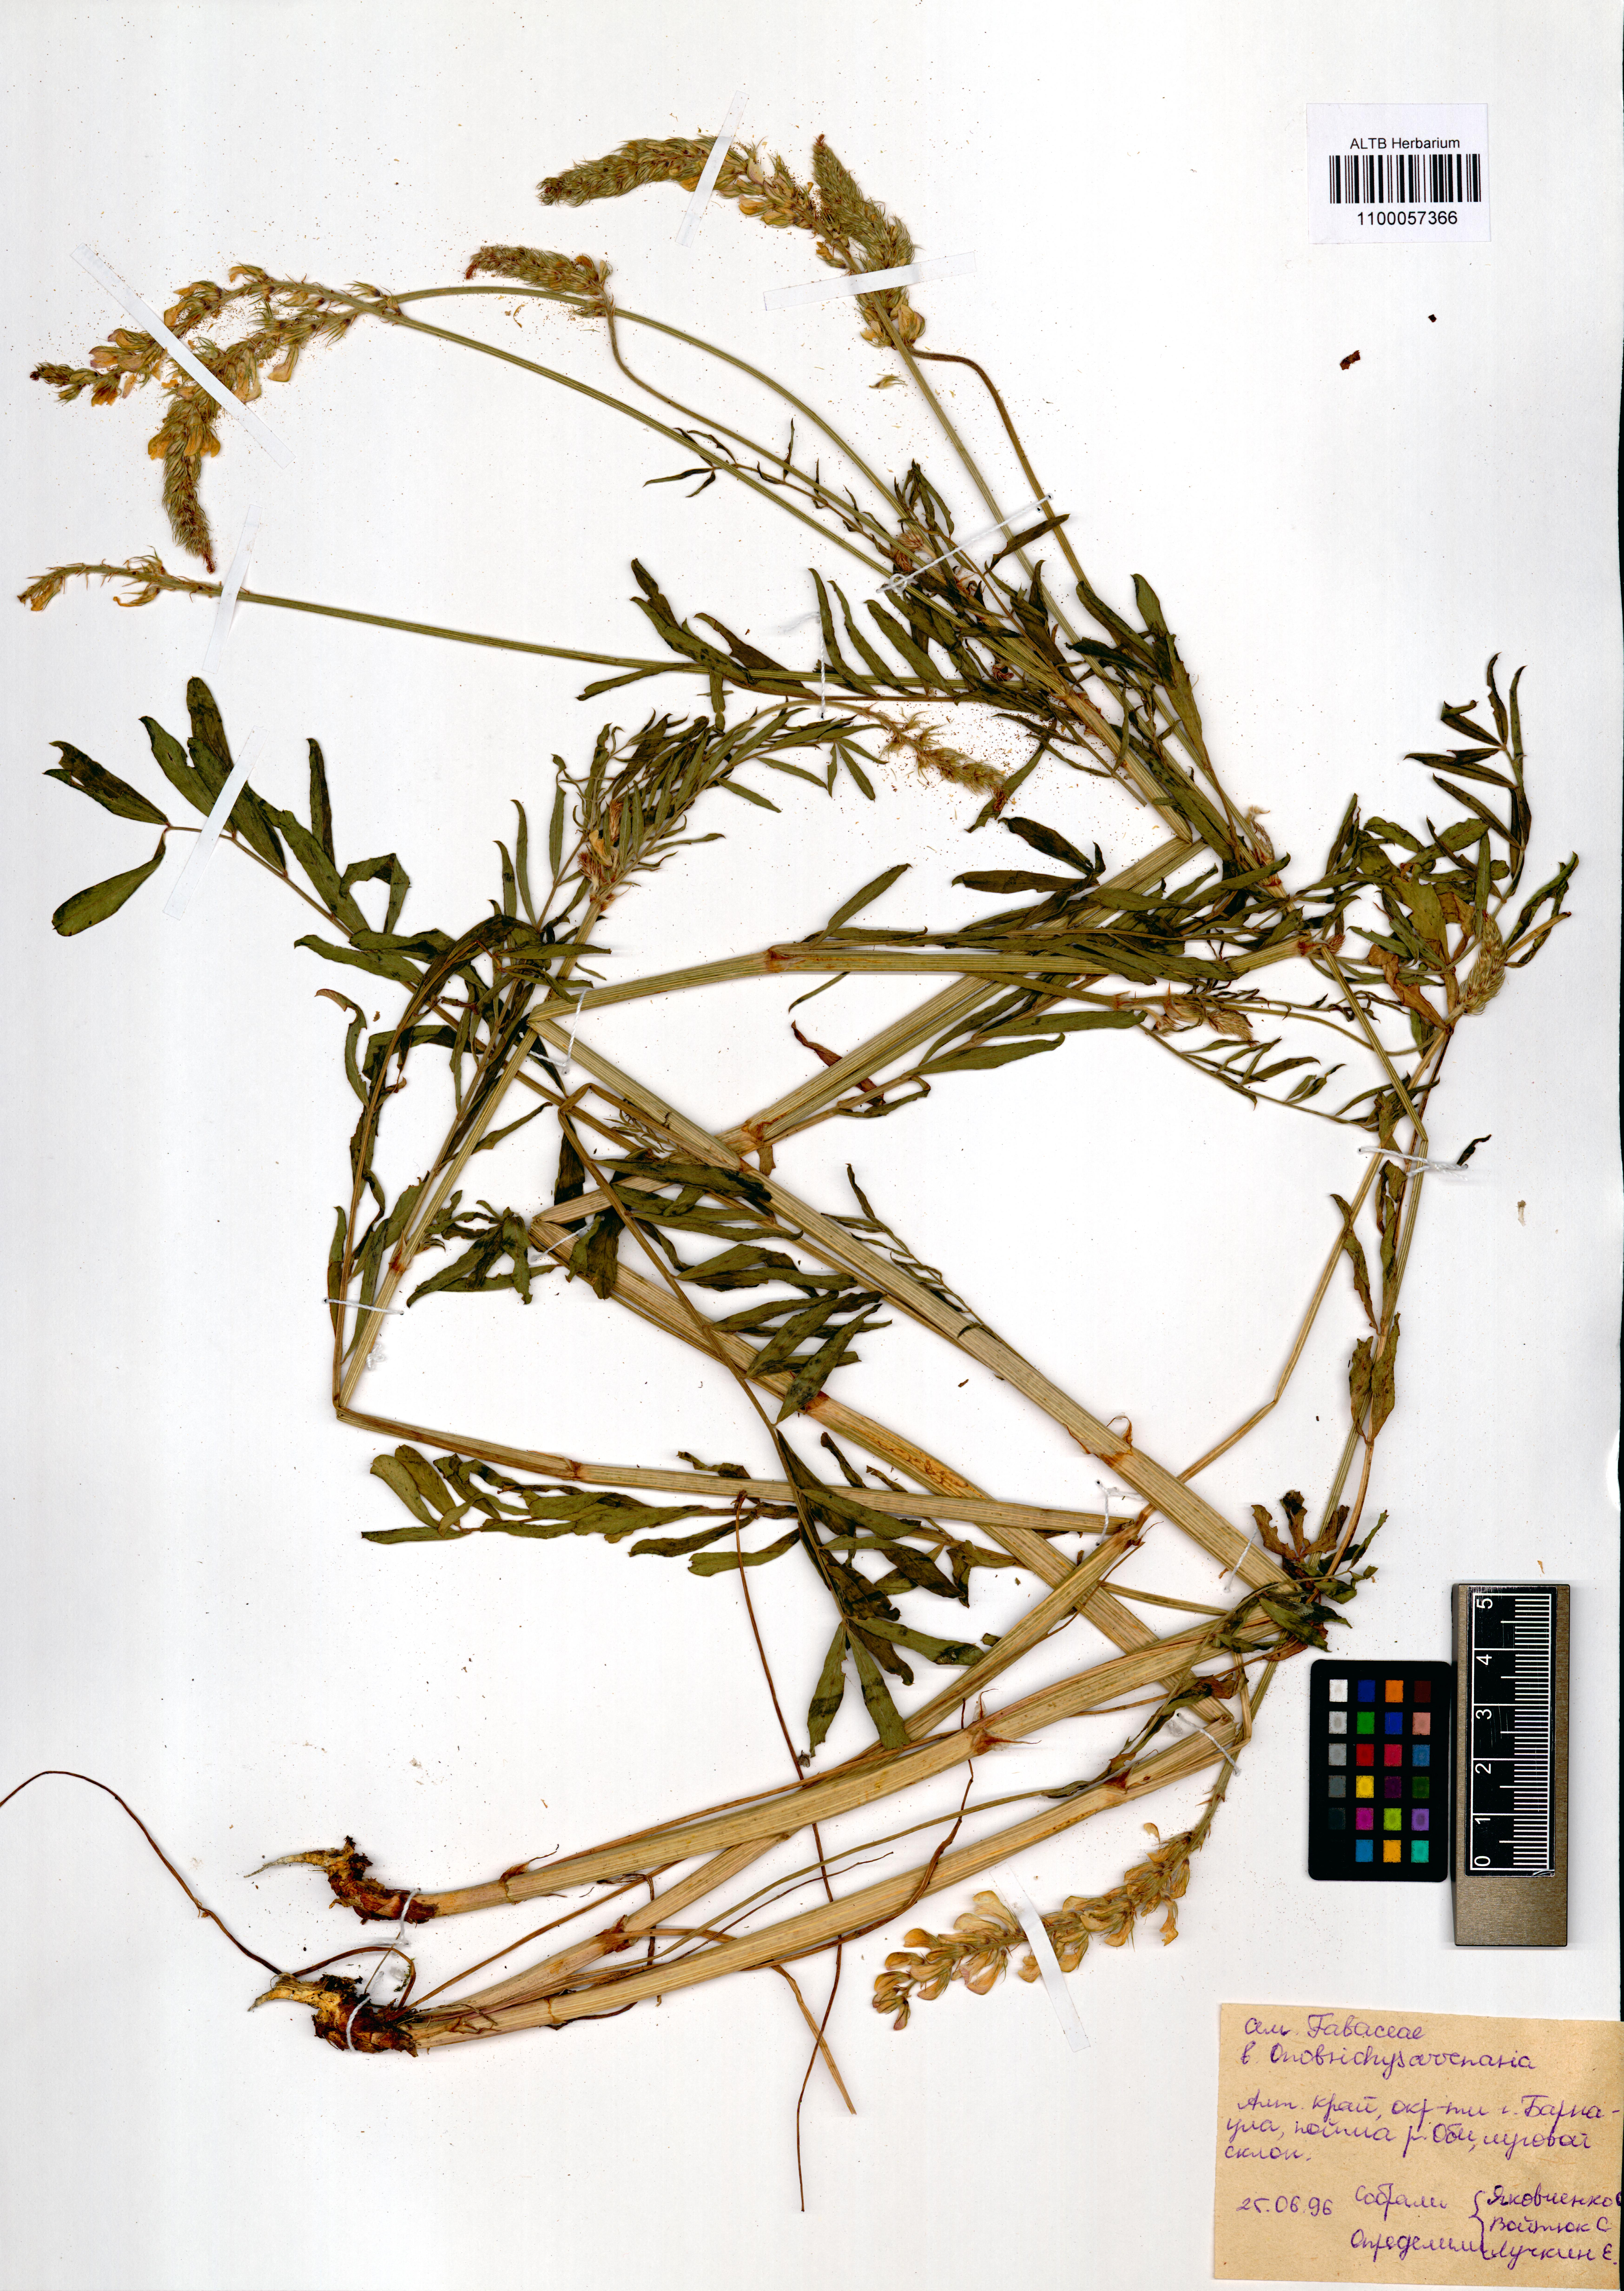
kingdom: Plantae
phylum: Tracheophyta
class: Magnoliopsida
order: Fabales
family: Fabaceae
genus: Onobrychis
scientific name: Onobrychis arenaria
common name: Sand esparcet
